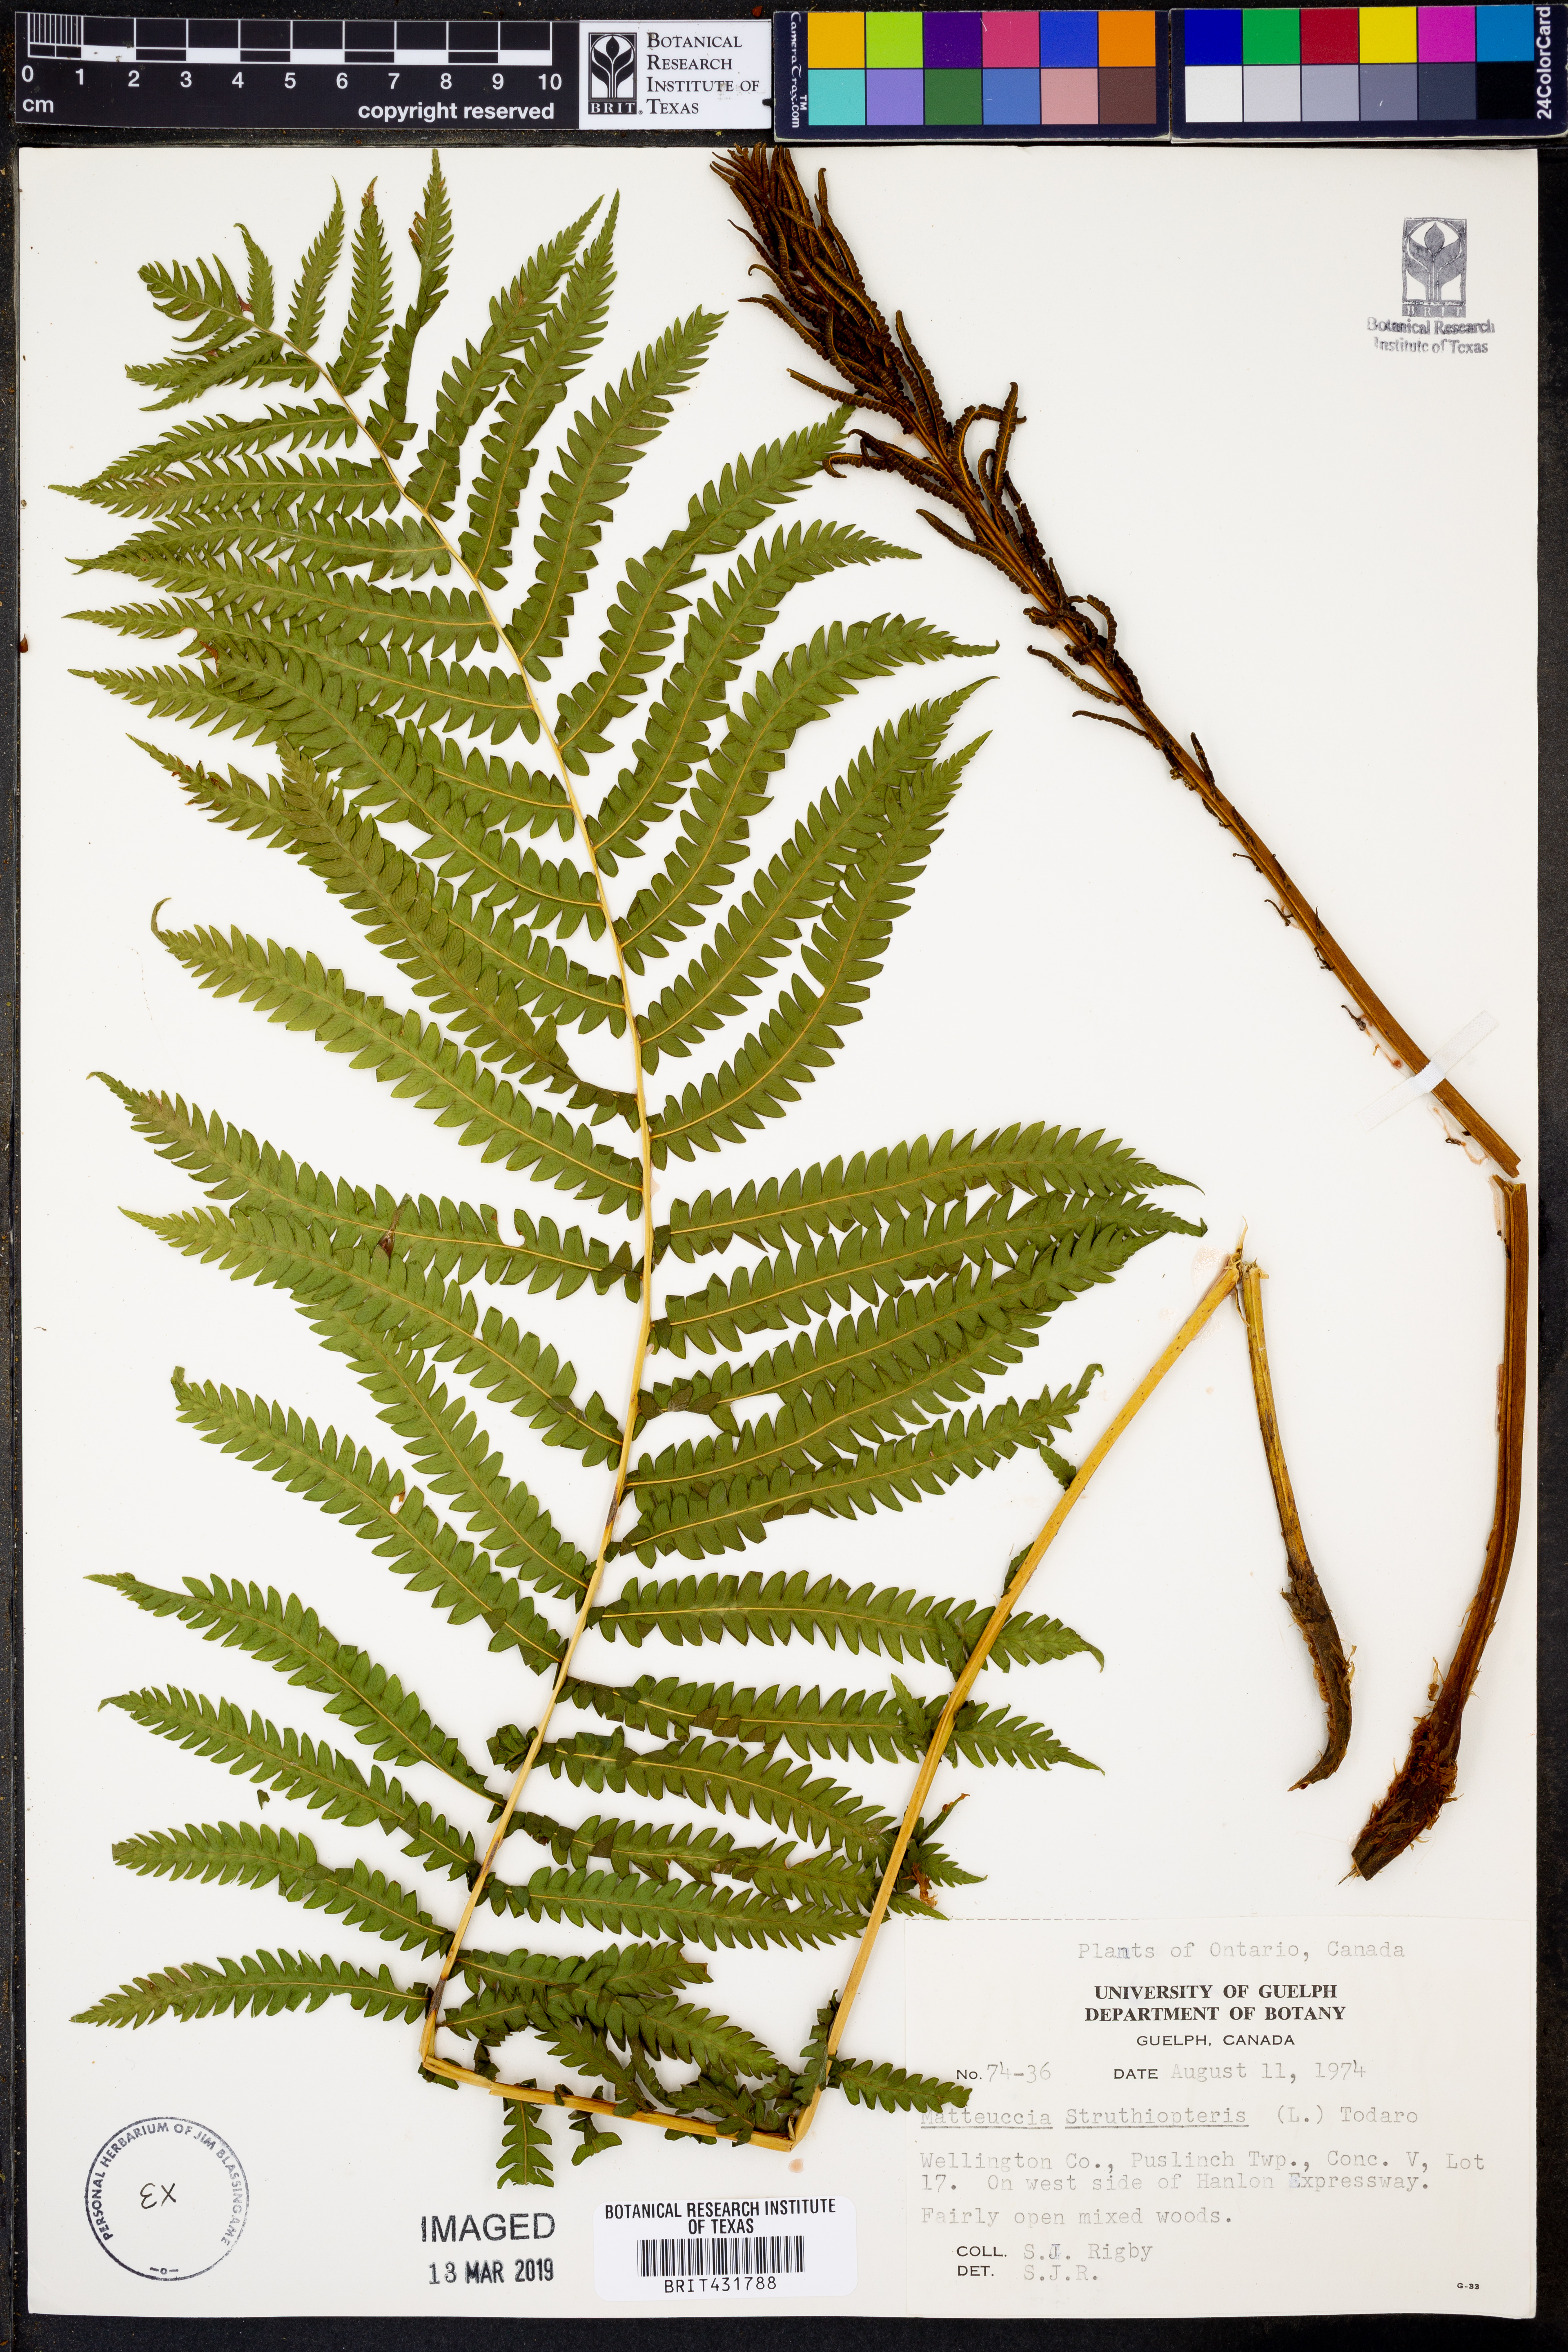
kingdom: Plantae
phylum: Tracheophyta
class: Polypodiopsida
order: Polypodiales
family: Onocleaceae
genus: Matteuccia
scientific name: Matteuccia struthiopteris
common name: Ostrich fern
